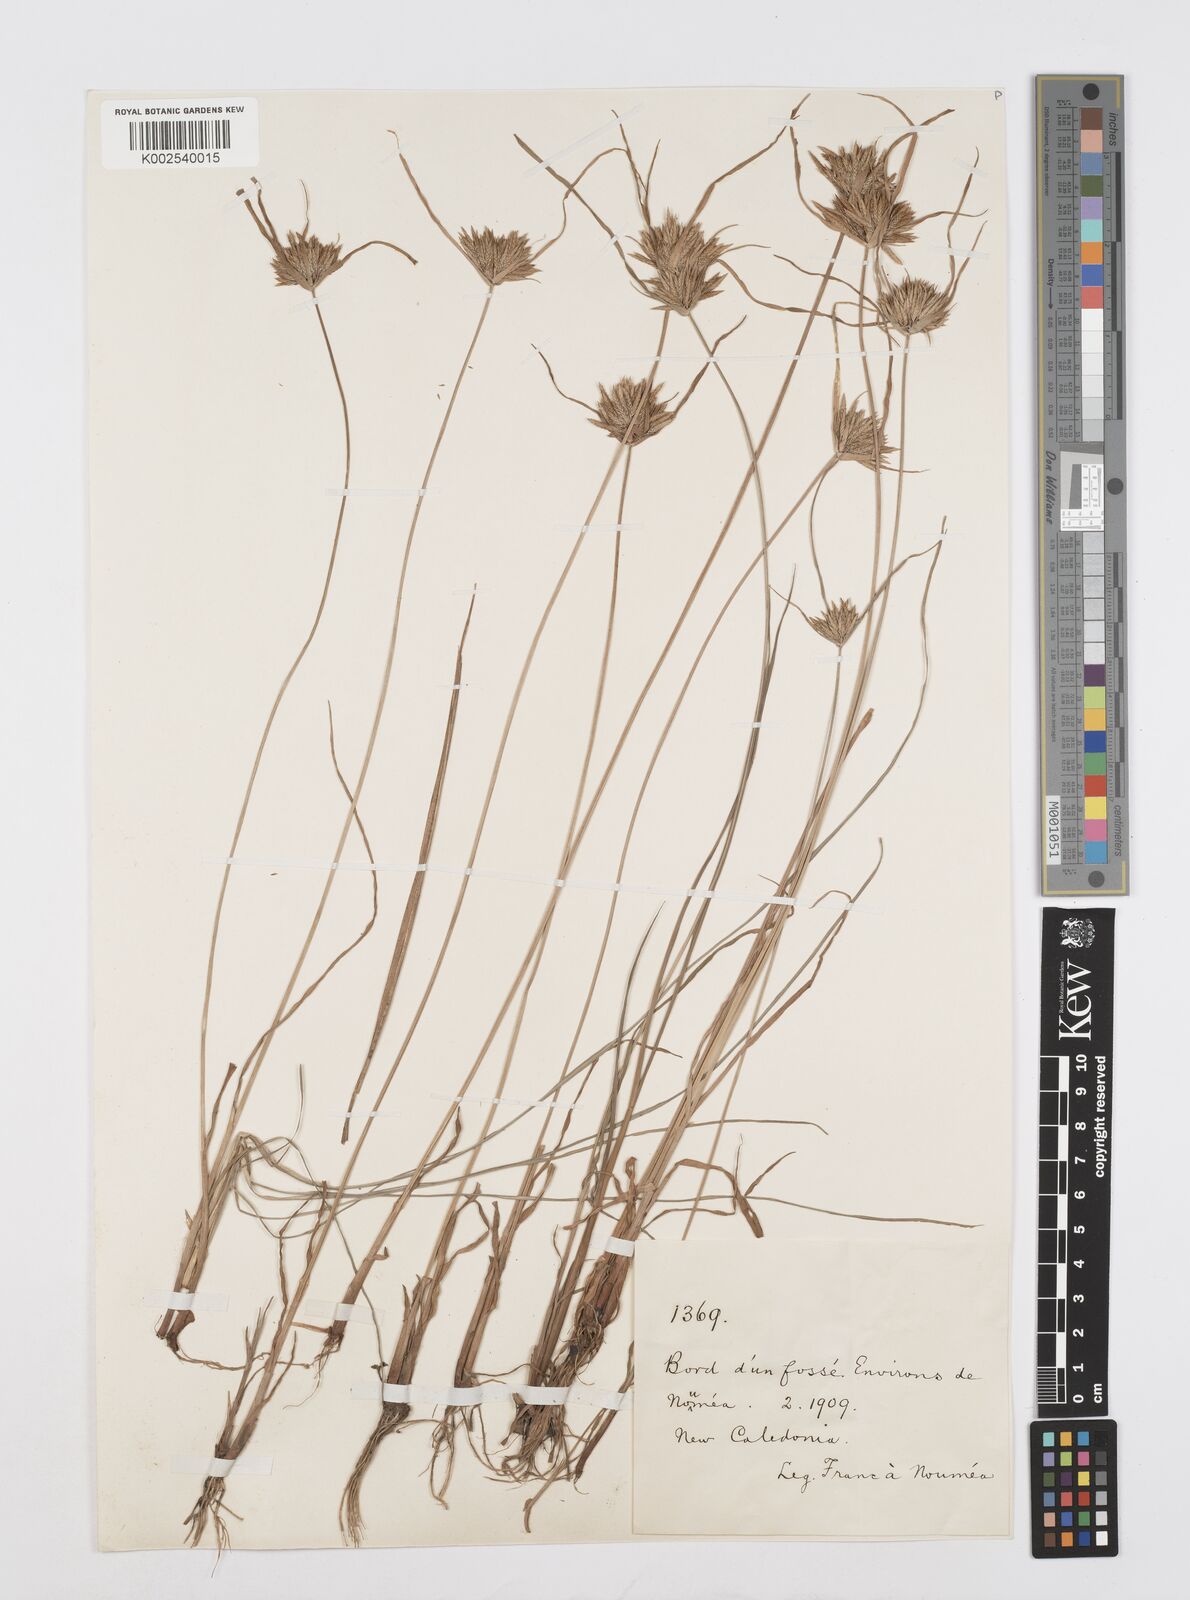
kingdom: Plantae
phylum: Tracheophyta
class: Liliopsida
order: Poales
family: Cyperaceae
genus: Cyperus
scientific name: Cyperus polystachyos
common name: Bunchy flat sedge
